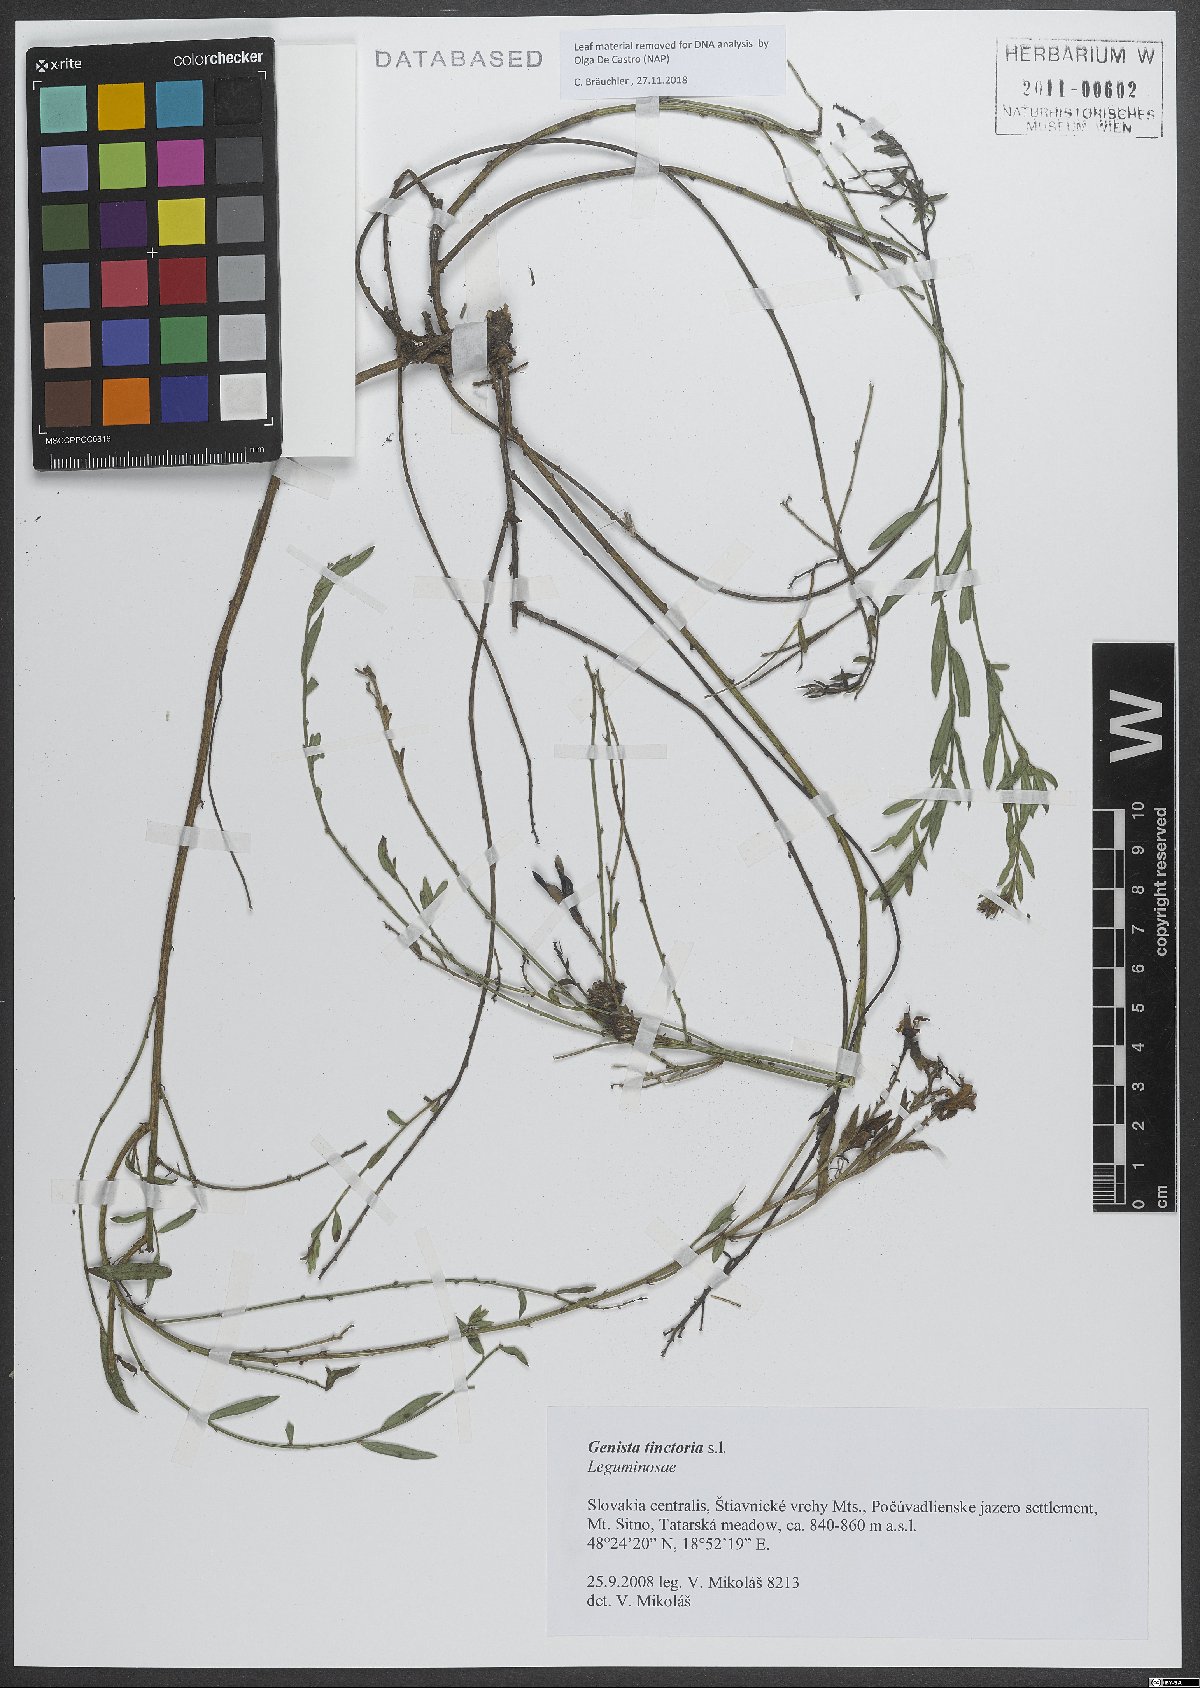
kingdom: Plantae
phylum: Tracheophyta
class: Magnoliopsida
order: Fabales
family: Fabaceae
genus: Genista
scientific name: Genista tinctoria
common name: Dyer's greenweed
